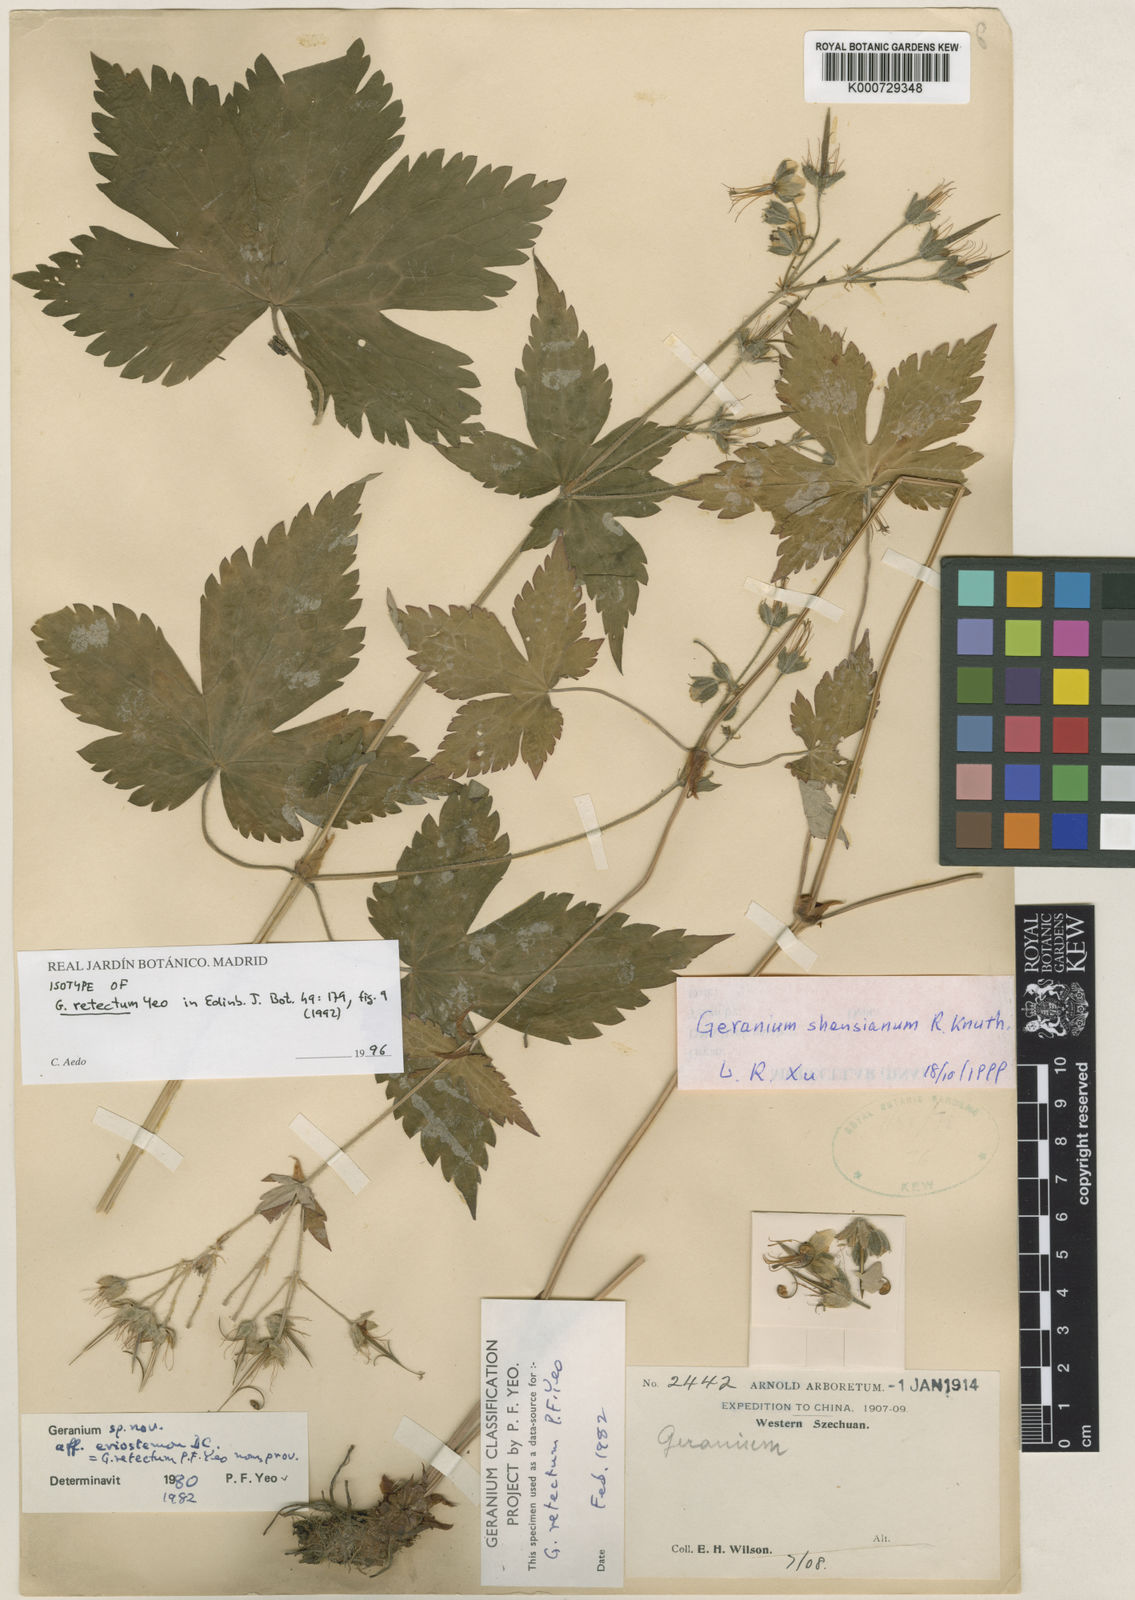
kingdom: Plantae
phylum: Tracheophyta
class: Magnoliopsida
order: Geraniales
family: Geraniaceae
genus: Geranium
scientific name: Geranium shensianum
